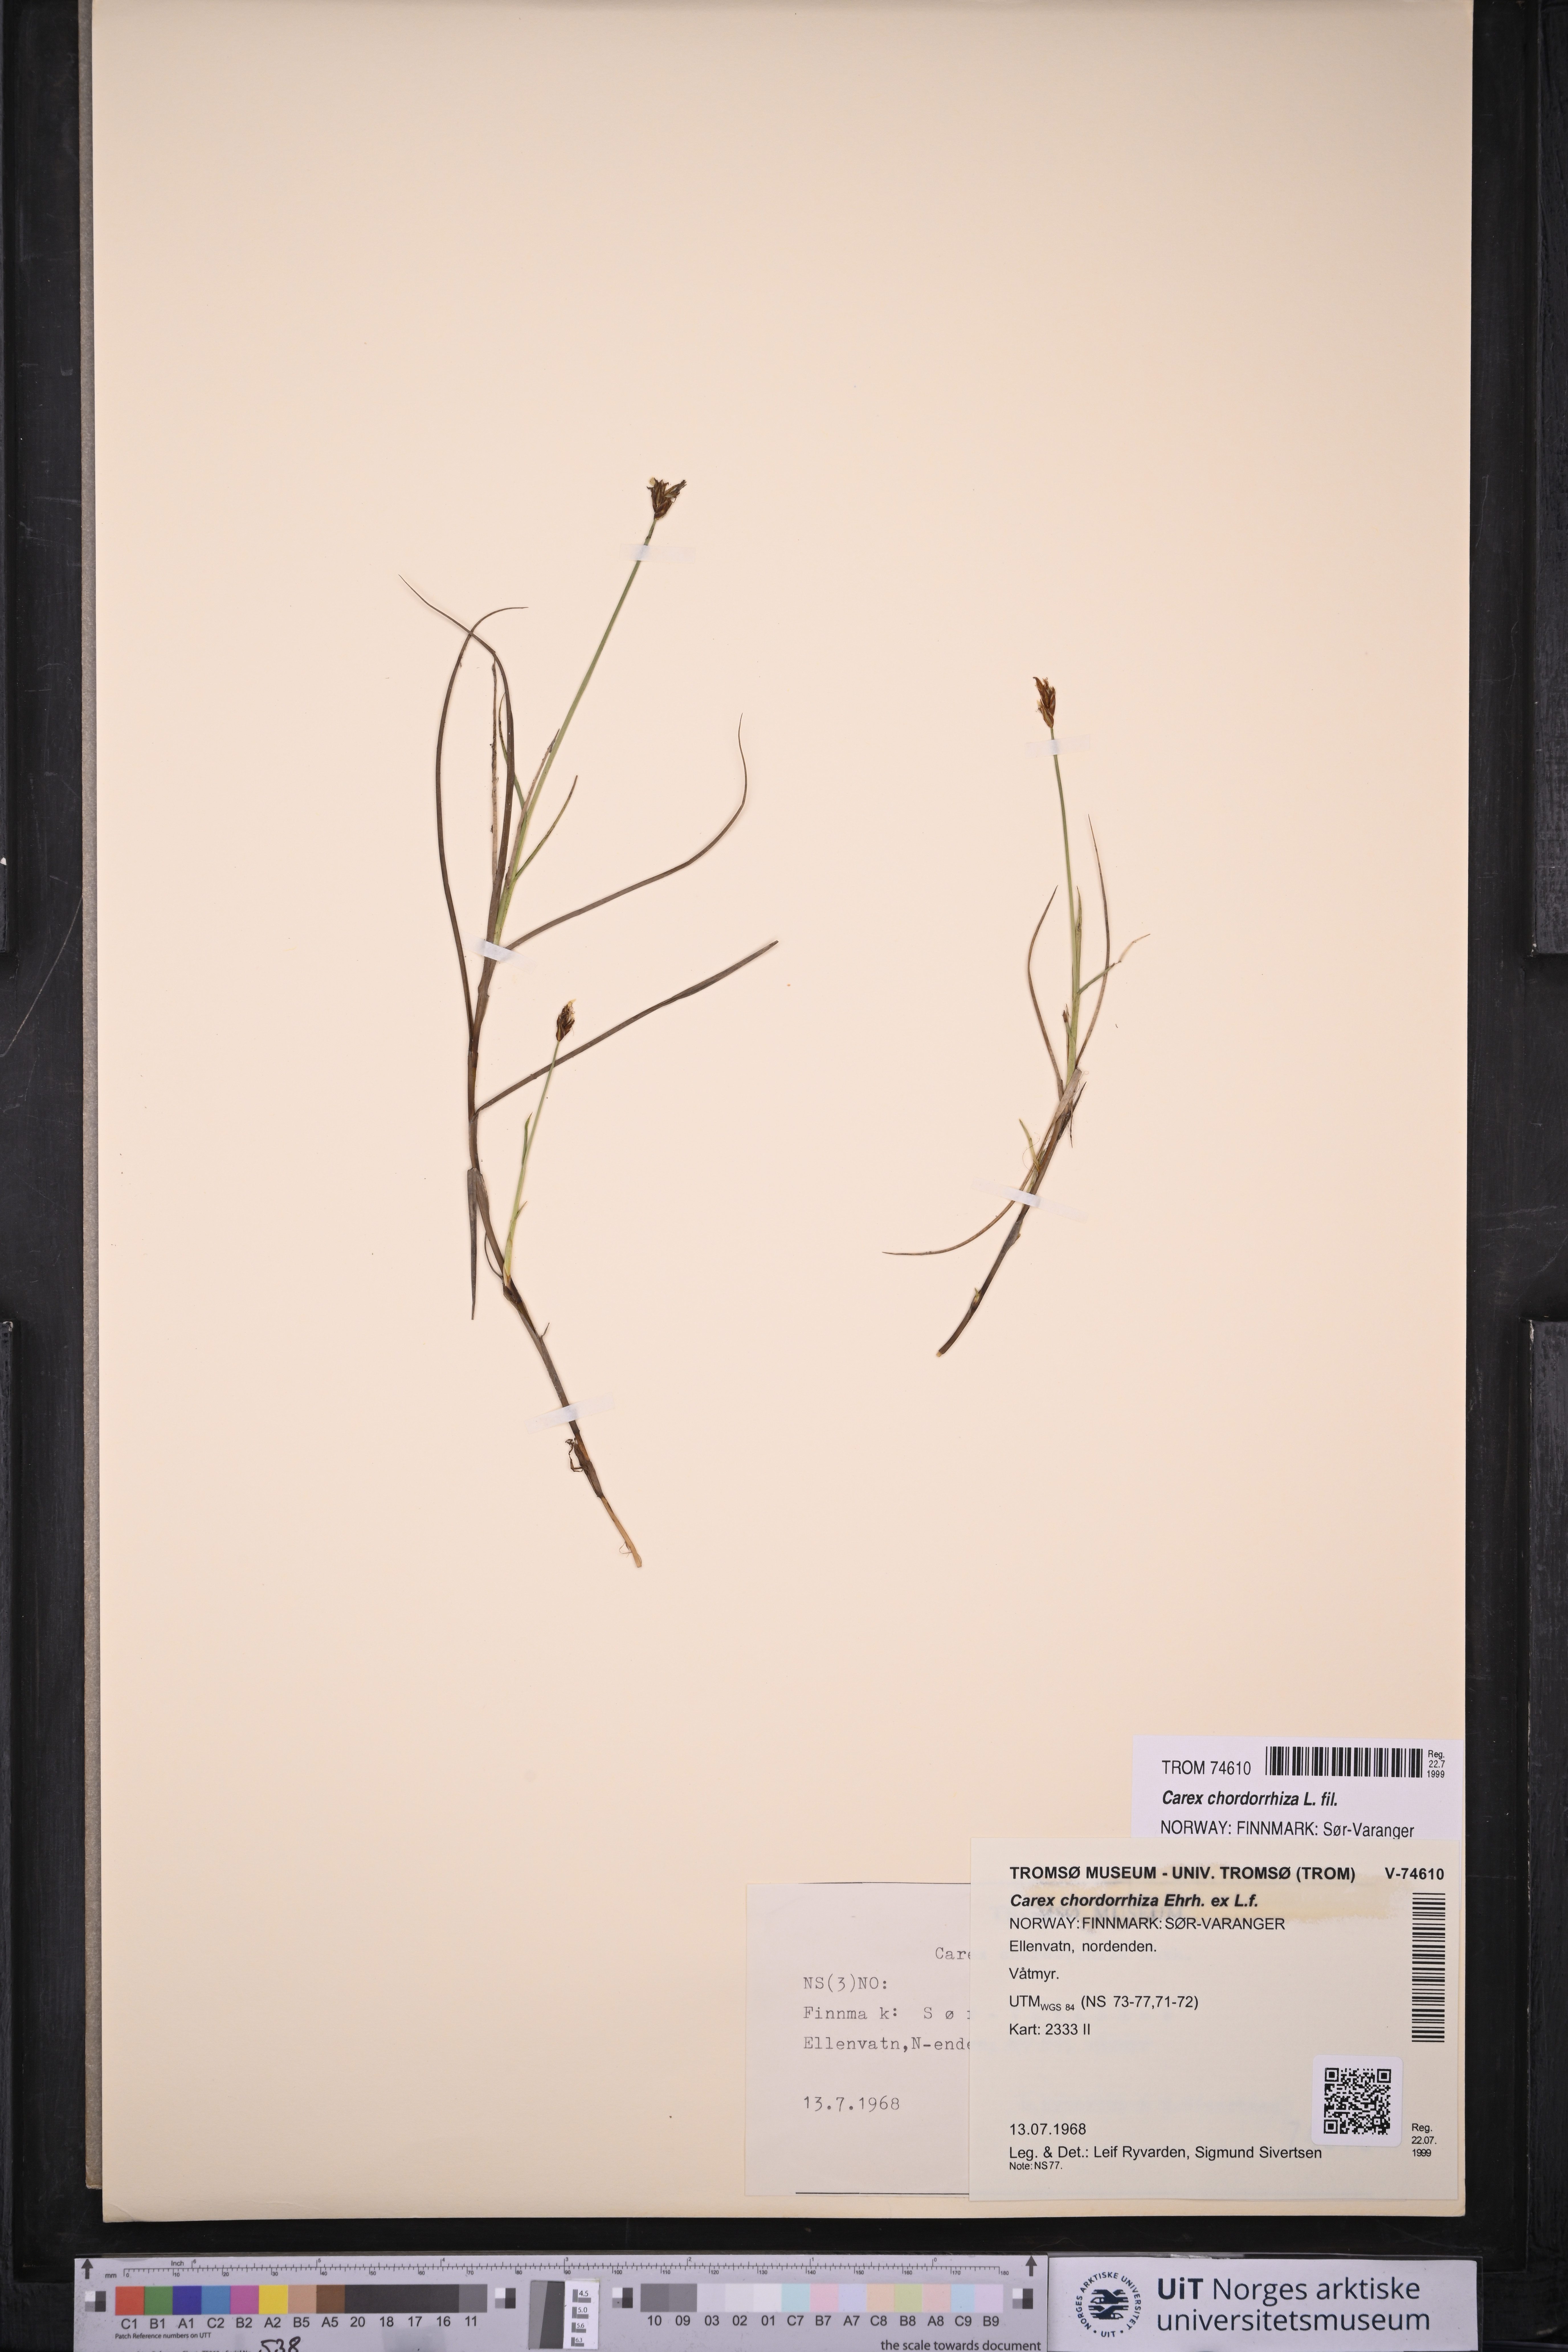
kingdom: Plantae
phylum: Tracheophyta
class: Liliopsida
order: Poales
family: Cyperaceae
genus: Carex
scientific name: Carex chordorrhiza
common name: String sedge
